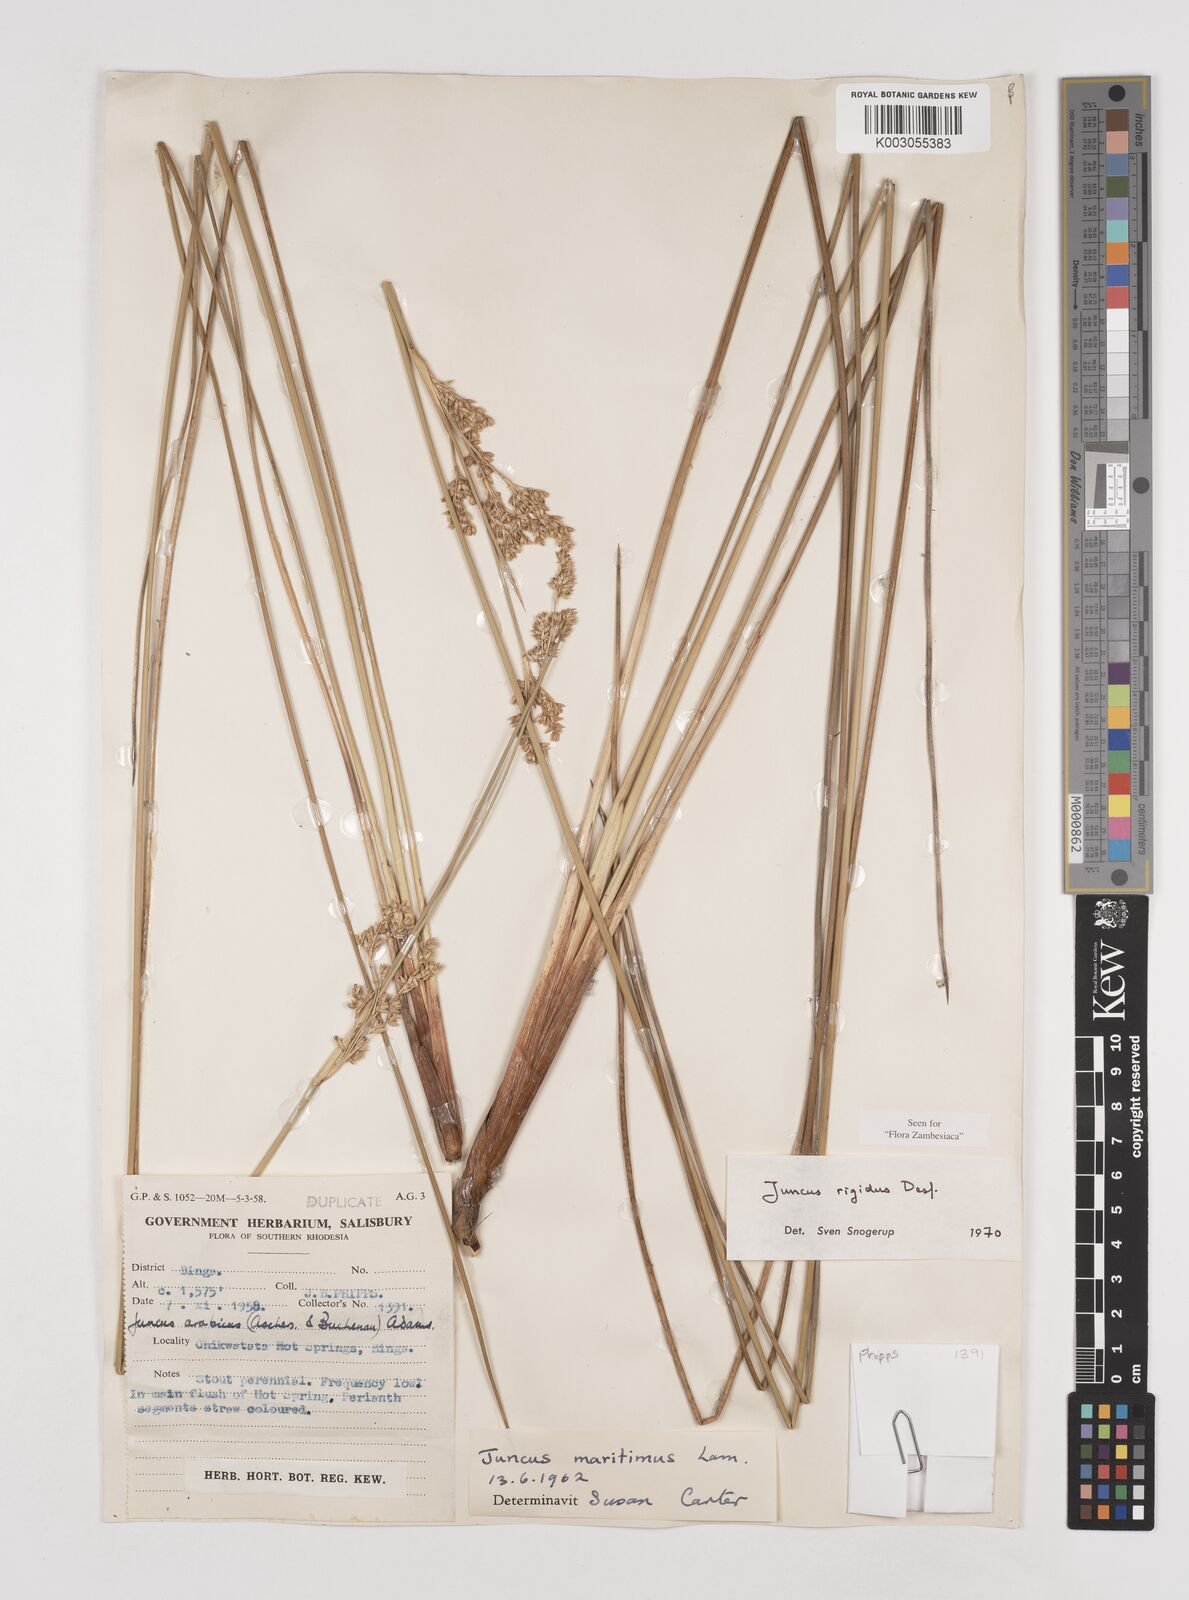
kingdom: Plantae
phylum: Tracheophyta
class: Liliopsida
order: Poales
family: Juncaceae
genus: Juncus
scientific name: Juncus rigidus
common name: Hard sea rush
